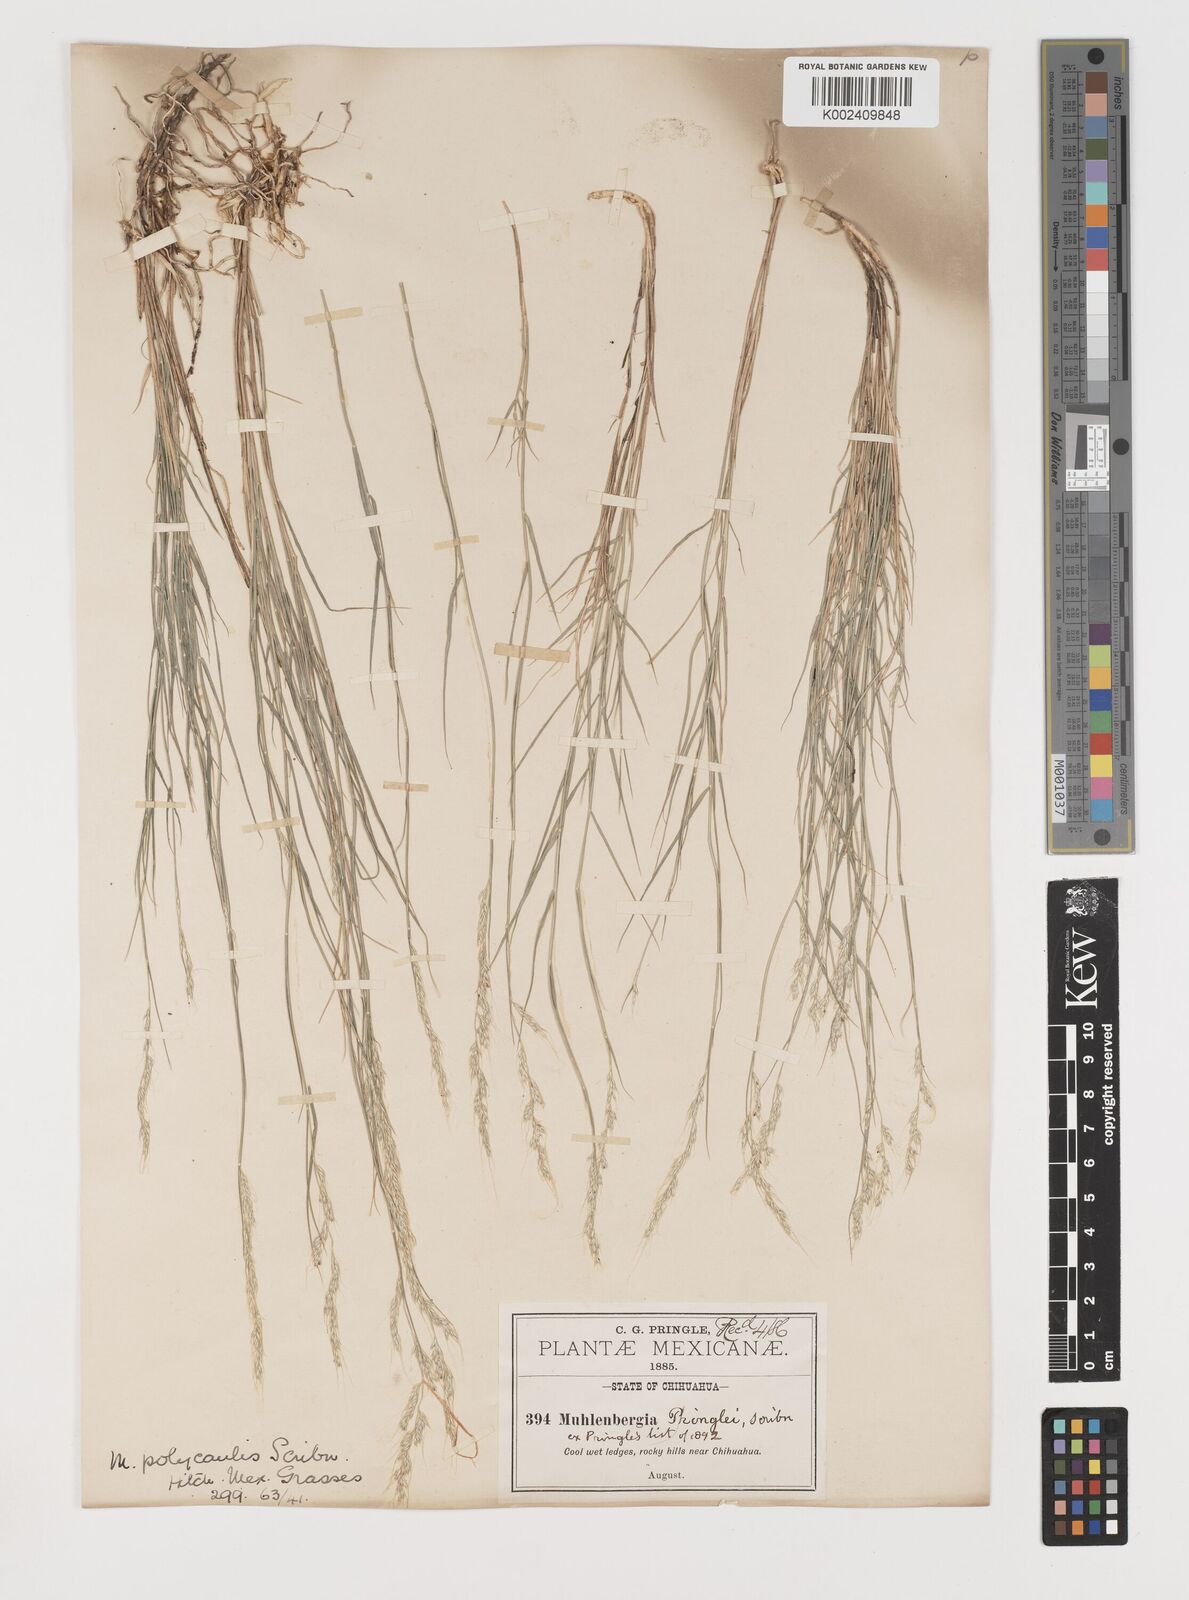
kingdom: Plantae
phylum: Tracheophyta
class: Liliopsida
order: Poales
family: Poaceae
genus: Muhlenbergia
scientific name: Muhlenbergia polycaulis
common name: Cliff muhly
